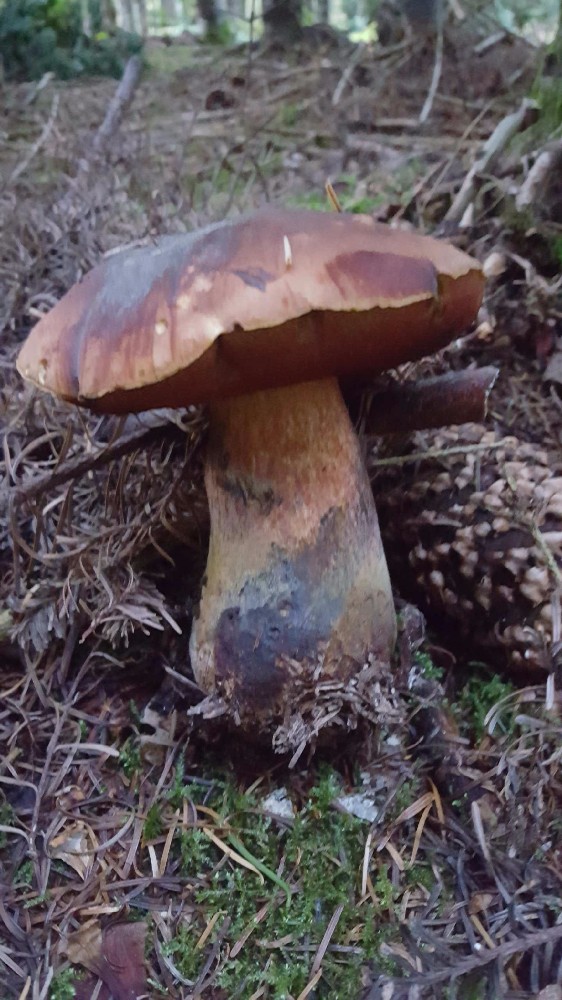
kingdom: Fungi
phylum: Basidiomycota
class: Agaricomycetes
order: Boletales
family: Boletaceae
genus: Neoboletus
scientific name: Neoboletus erythropus
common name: punktstokket indigorørhat
